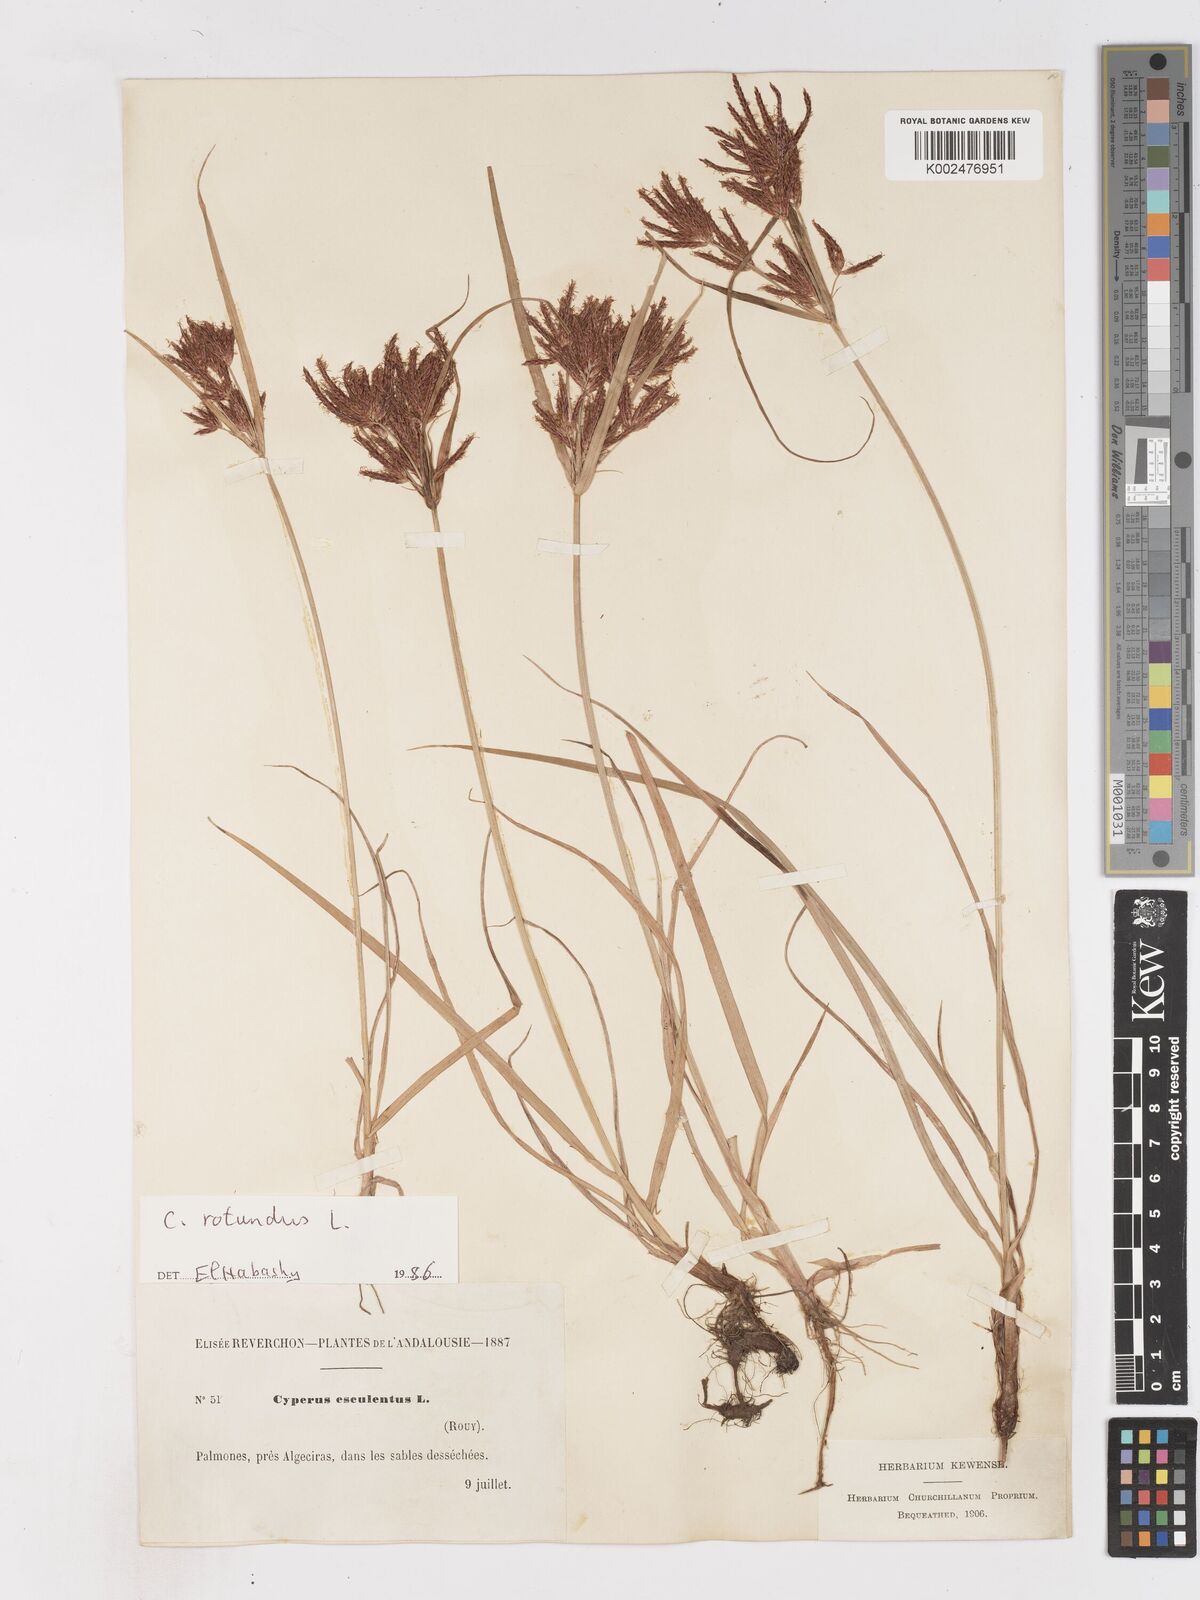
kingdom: Plantae
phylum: Tracheophyta
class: Liliopsida
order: Poales
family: Cyperaceae
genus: Cyperus
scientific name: Cyperus rotundus
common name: Nutgrass
